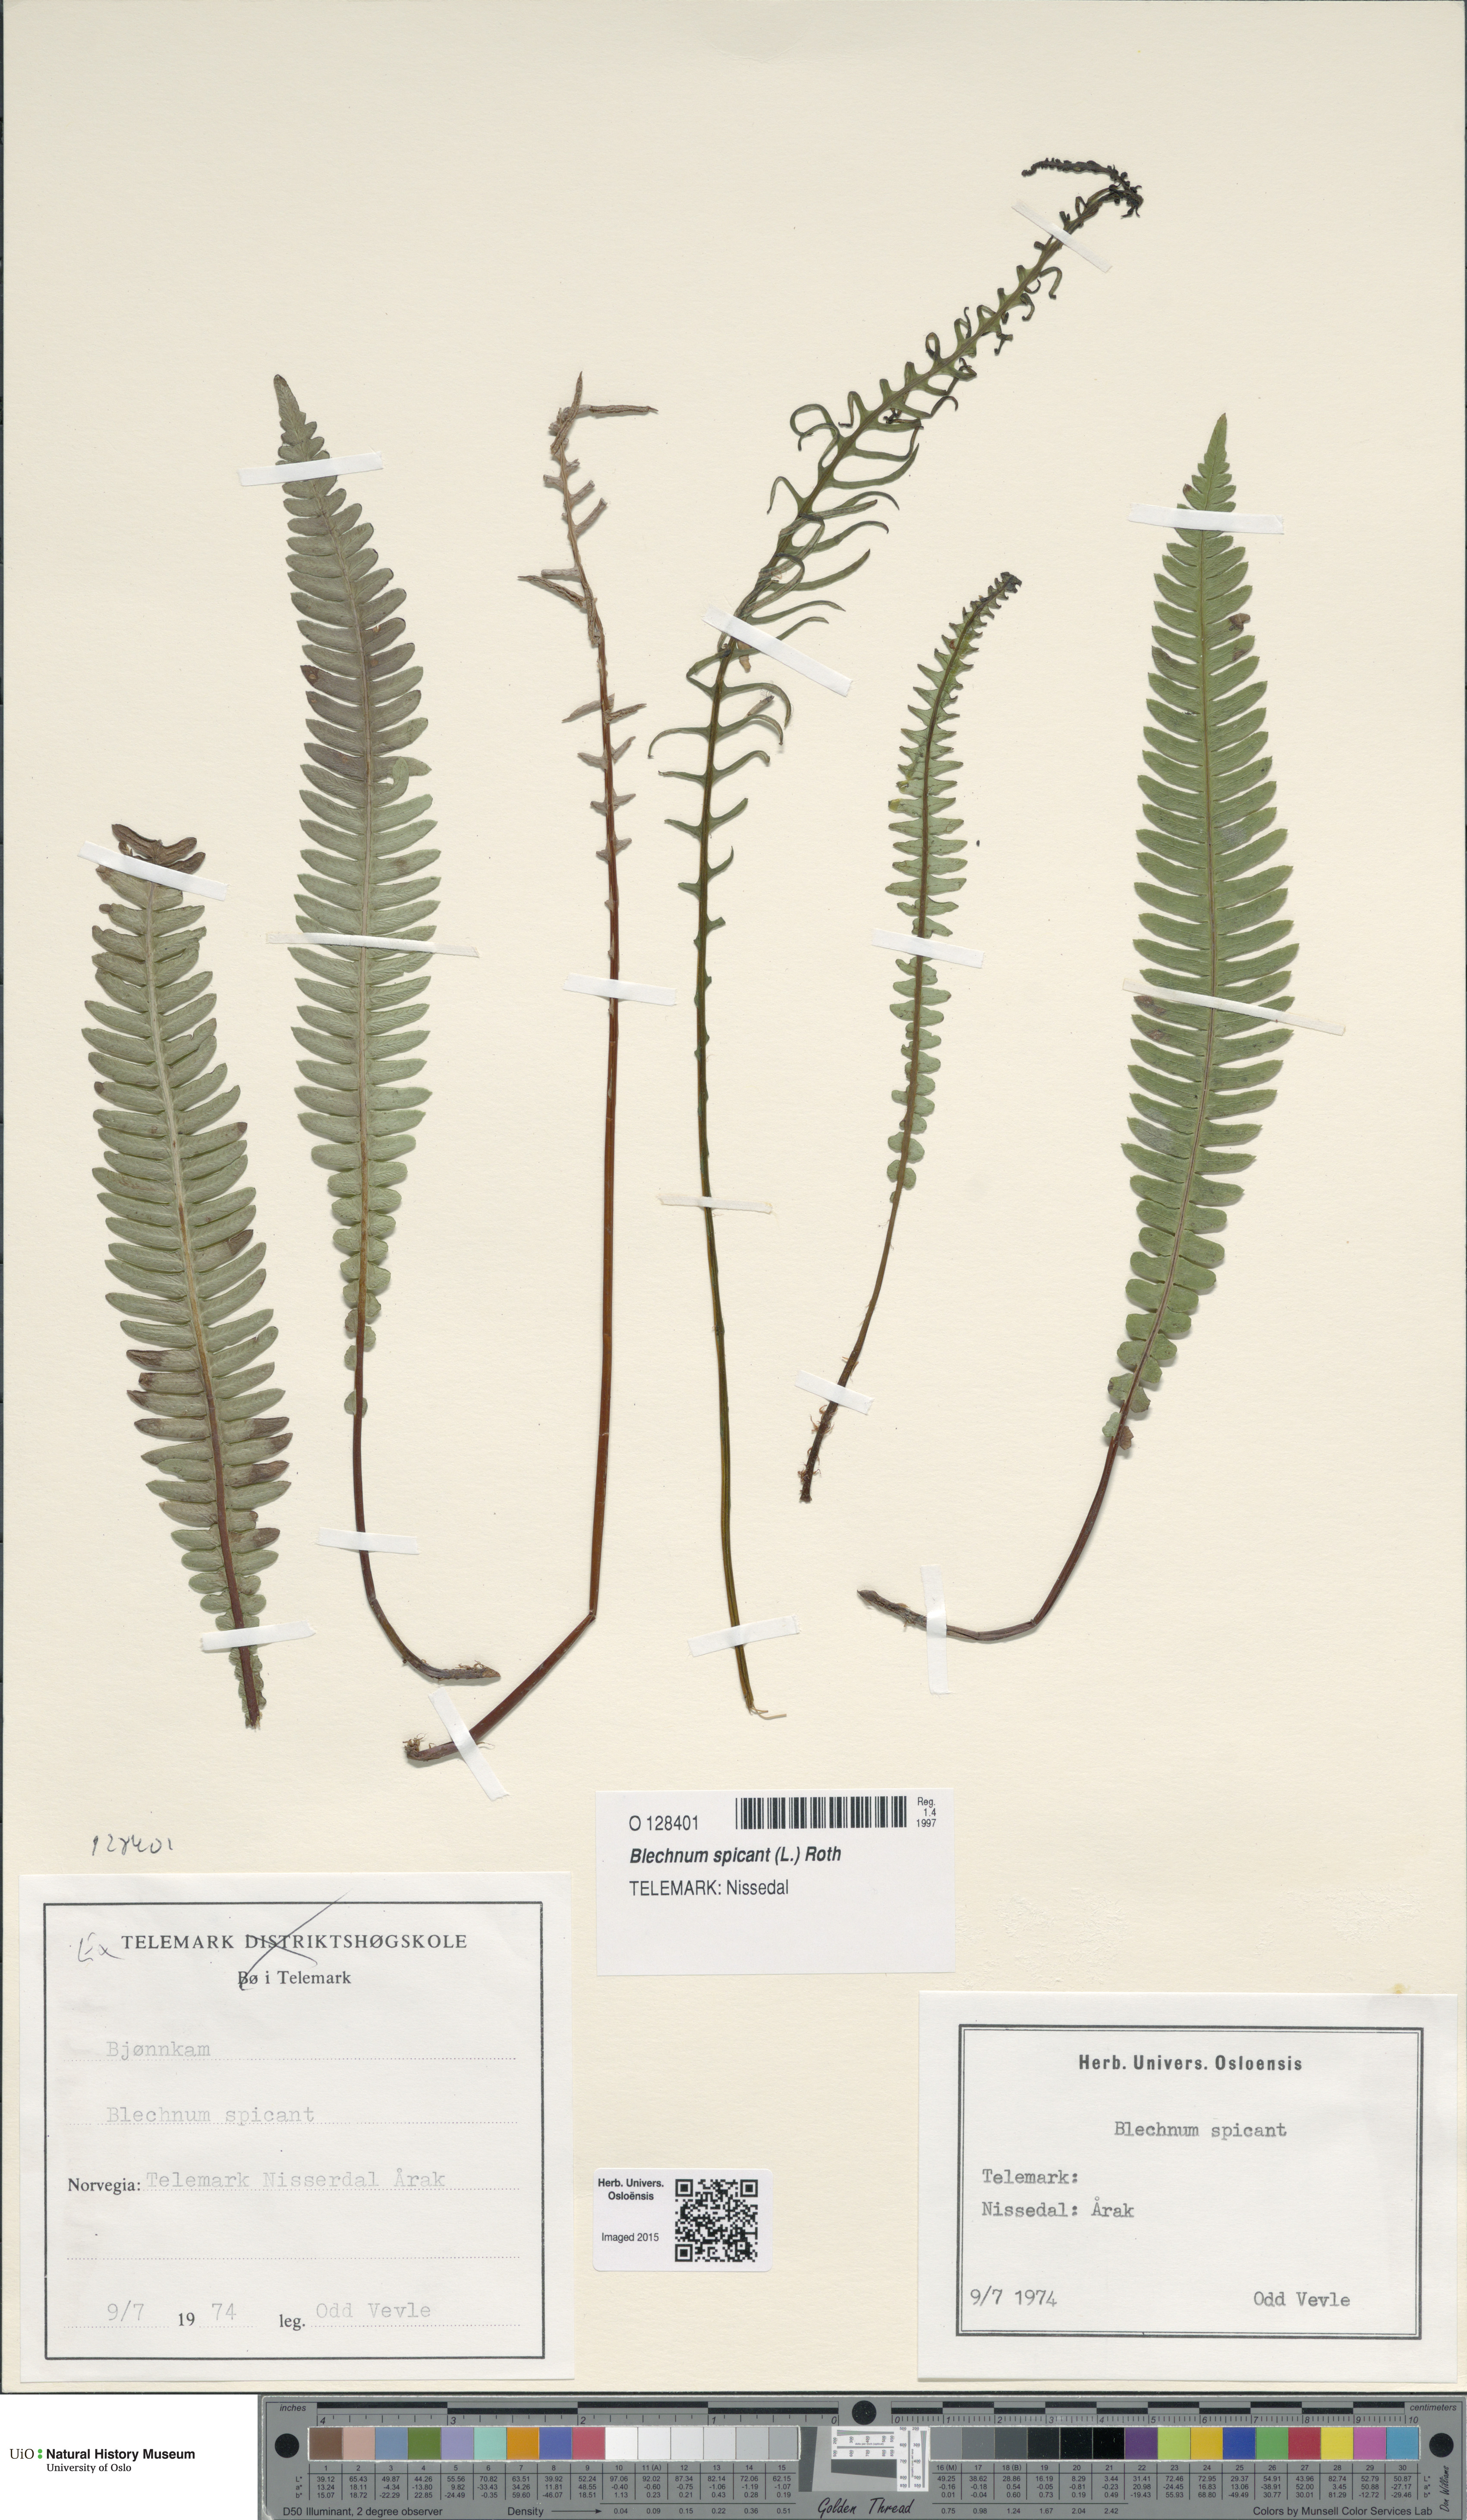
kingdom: Plantae
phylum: Tracheophyta
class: Polypodiopsida
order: Polypodiales
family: Blechnaceae
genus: Struthiopteris
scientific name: Struthiopteris spicant
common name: Deer fern
